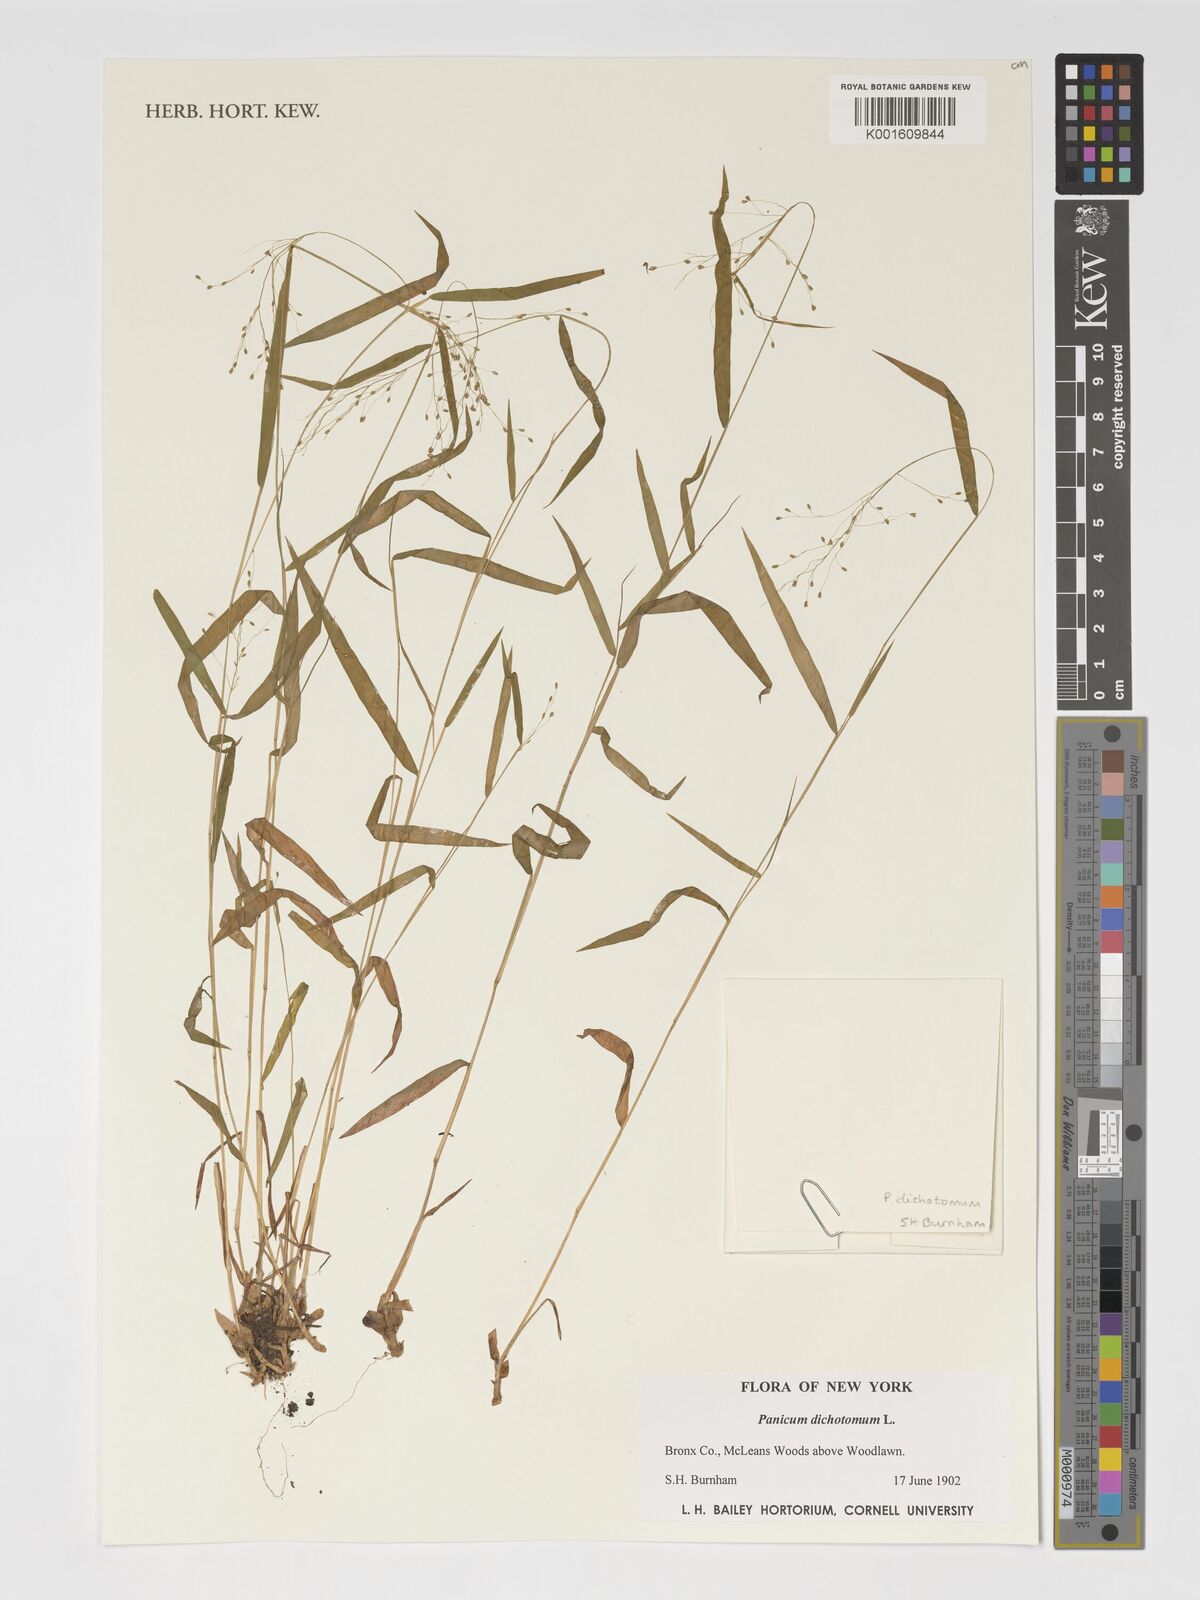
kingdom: Plantae
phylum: Tracheophyta
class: Liliopsida
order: Poales
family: Poaceae
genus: Dichanthelium
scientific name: Dichanthelium dichotomum
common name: Cypress panicgrass
